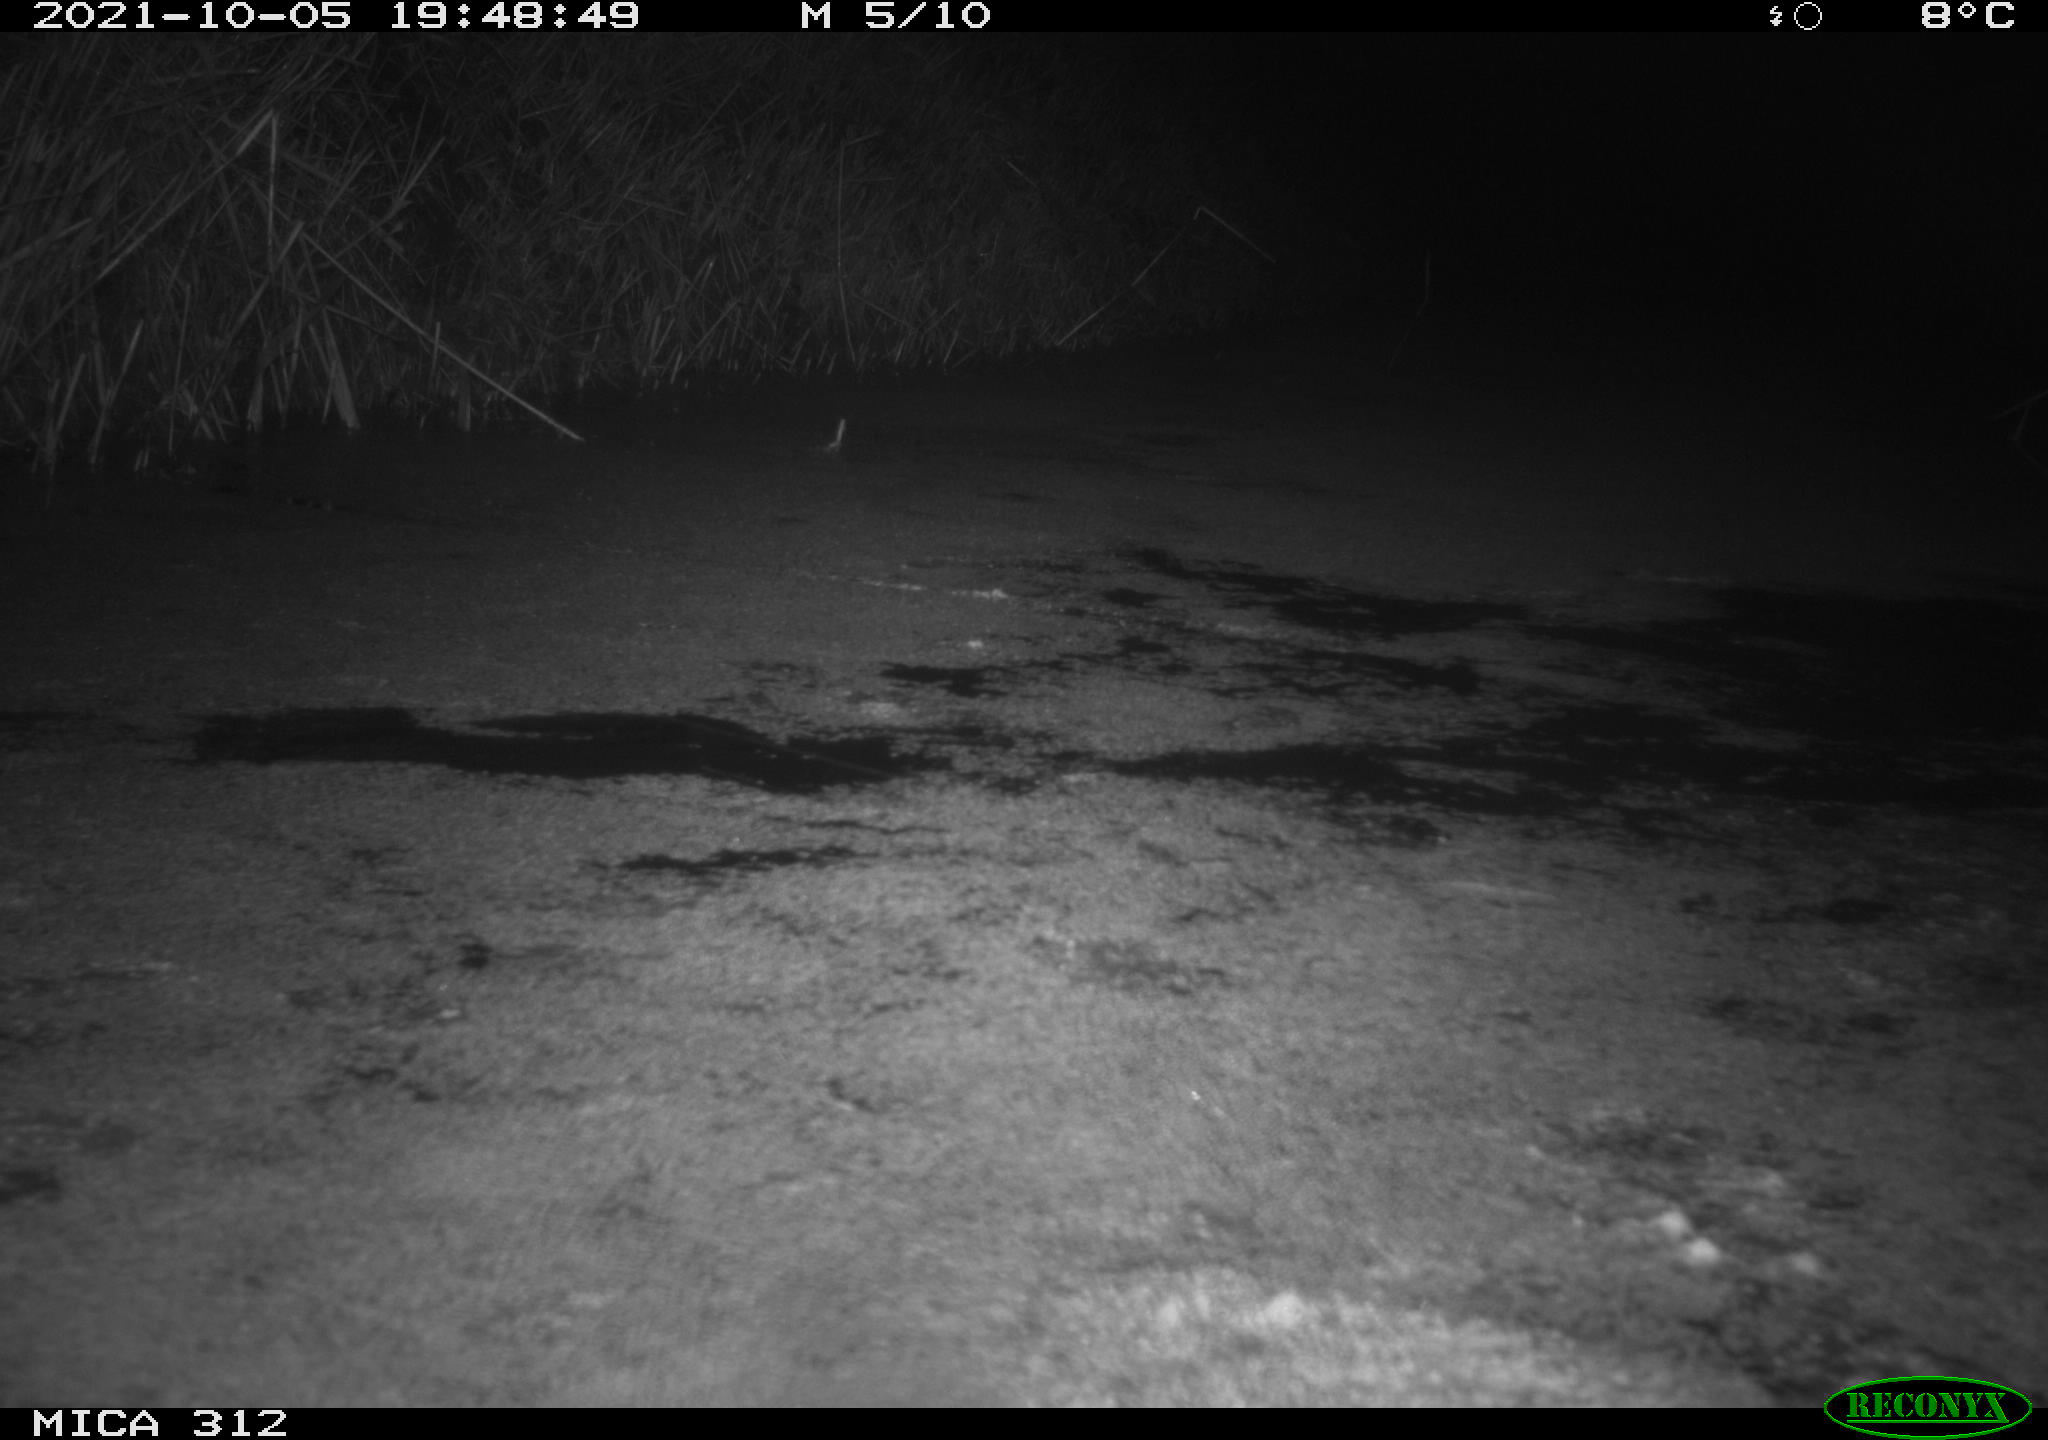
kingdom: Animalia
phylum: Chordata
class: Mammalia
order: Rodentia
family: Cricetidae
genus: Ondatra
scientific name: Ondatra zibethicus
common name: Muskrat
